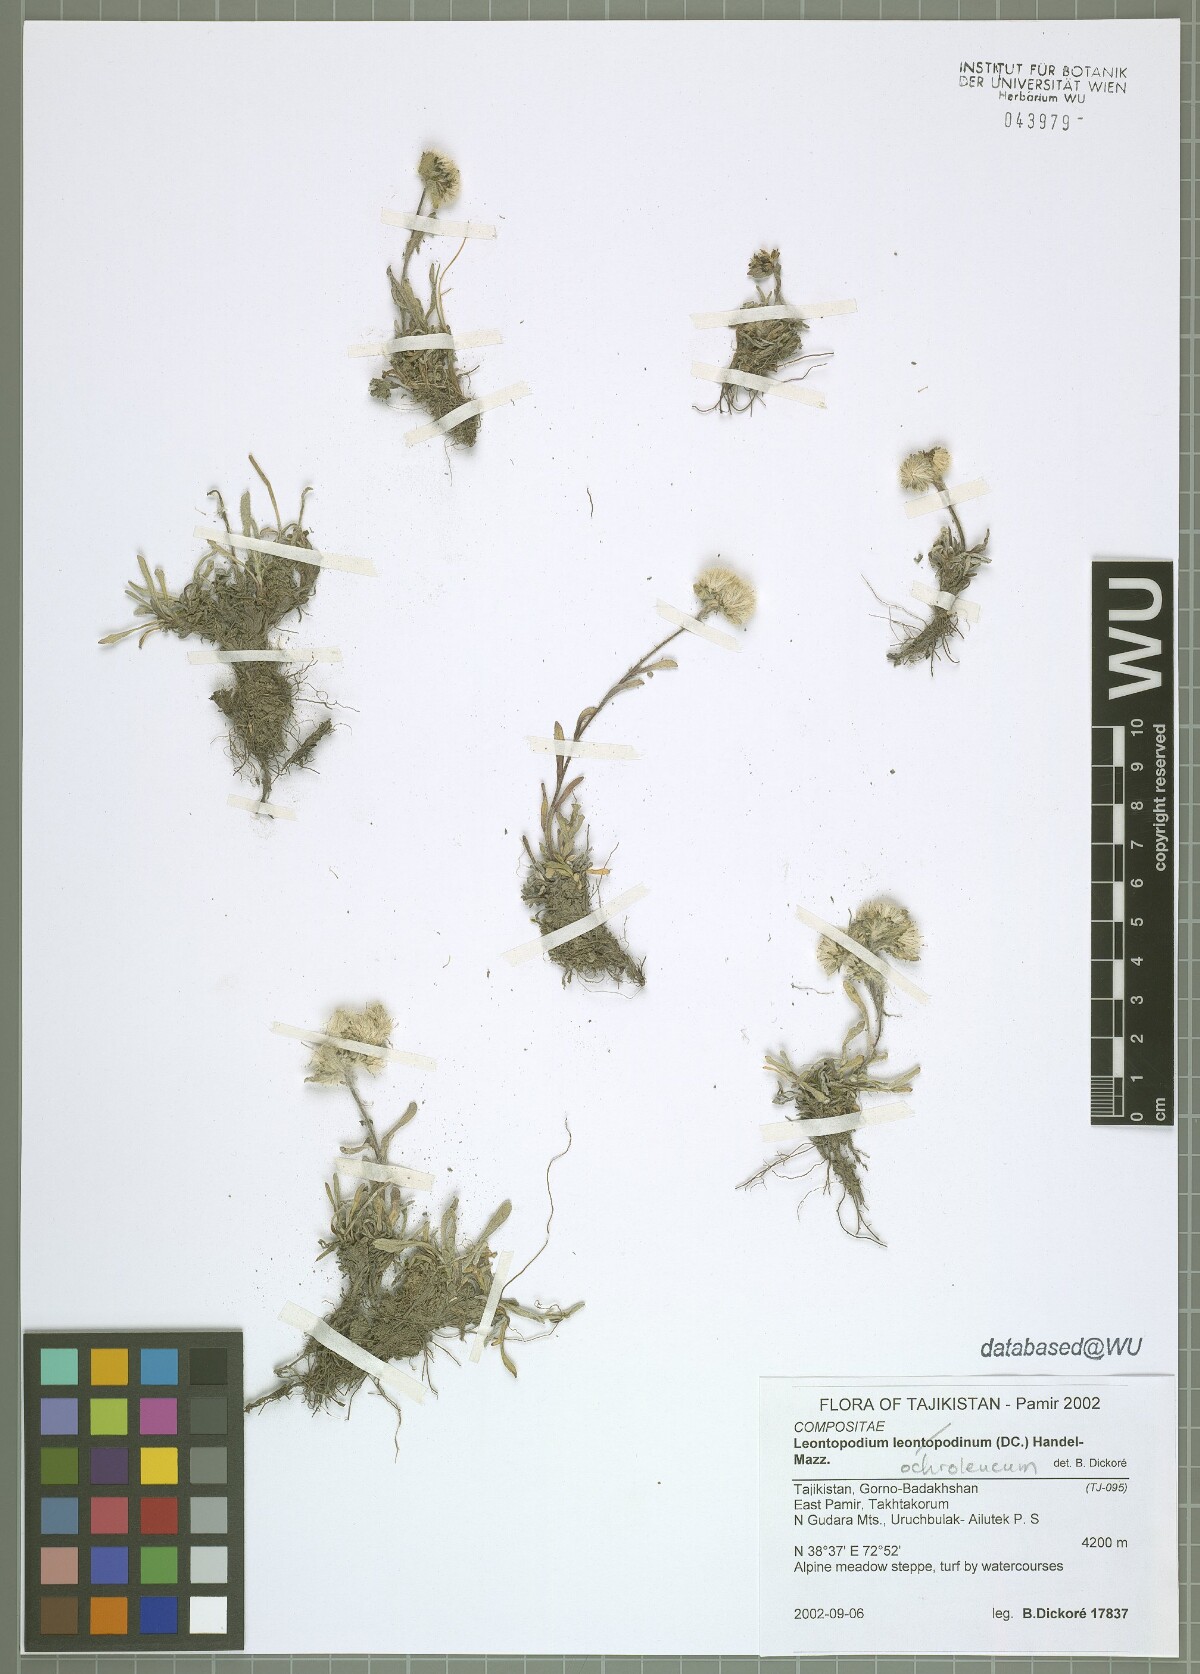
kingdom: Plantae
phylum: Tracheophyta
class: Magnoliopsida
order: Asterales
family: Asteraceae
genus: Leontopodium
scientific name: Leontopodium leontopodinum
